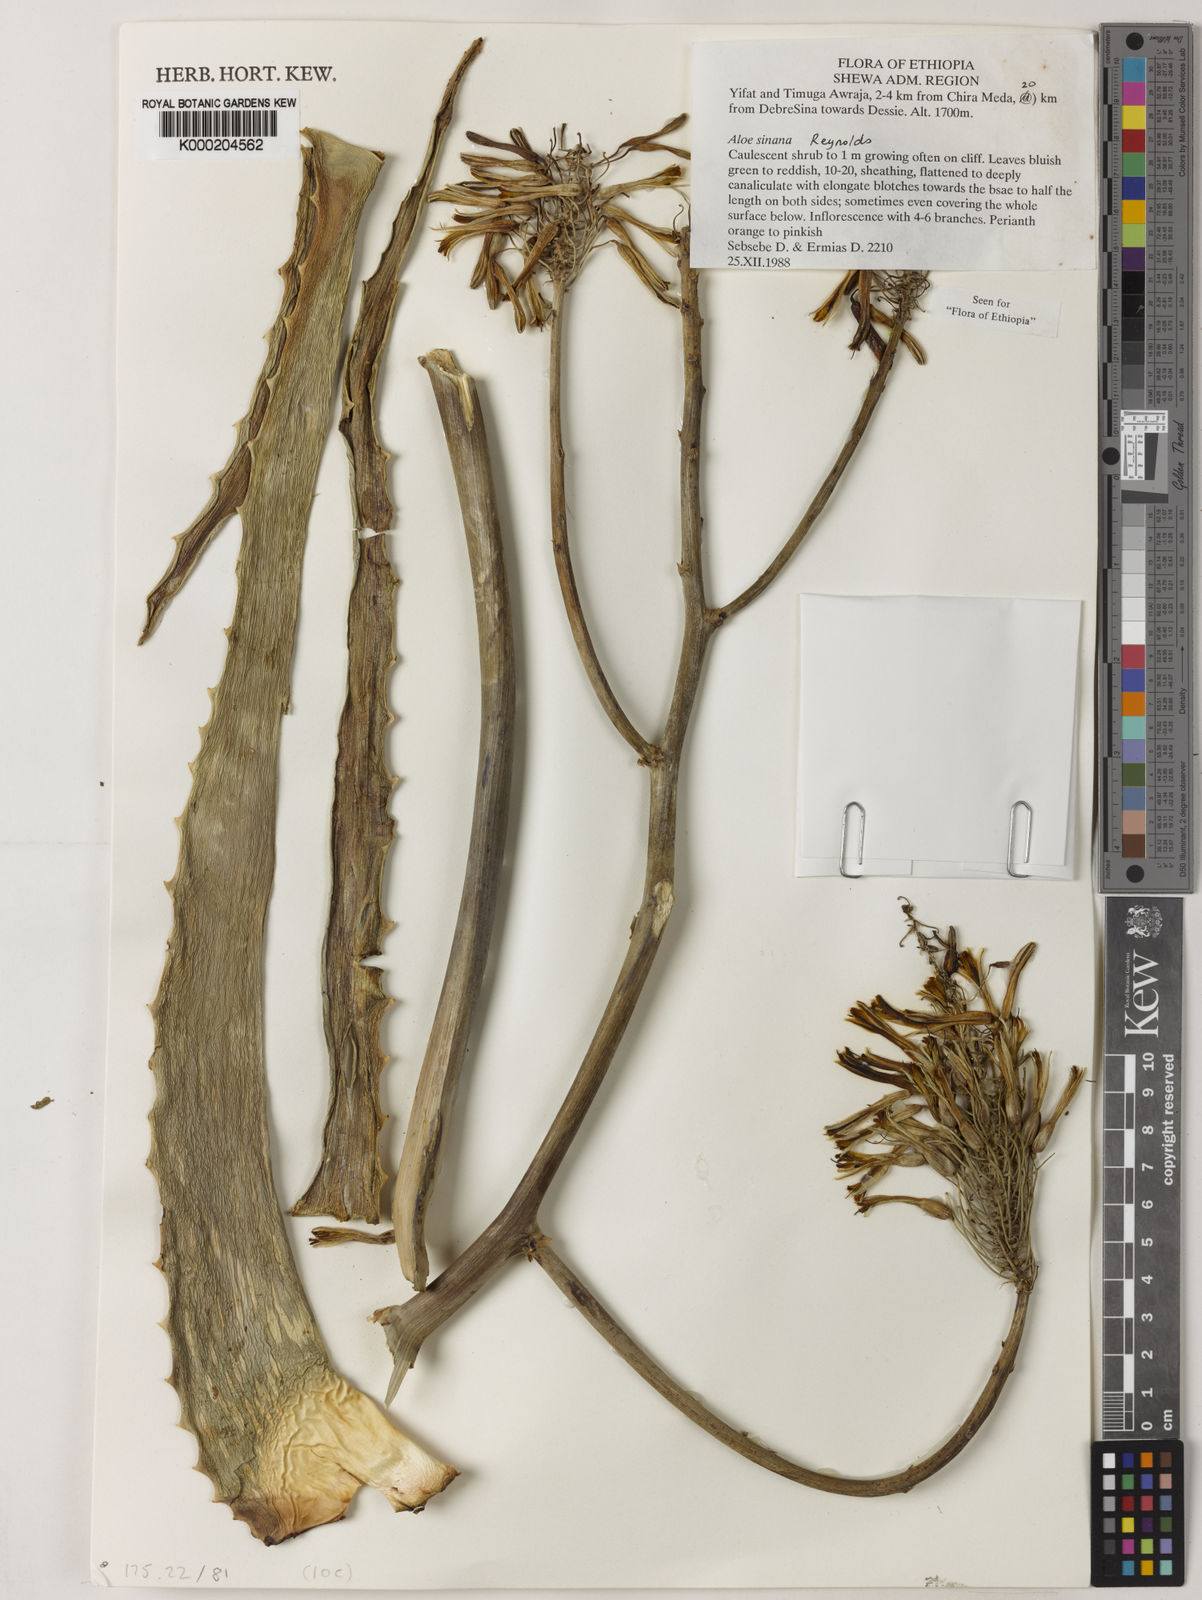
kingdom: Plantae
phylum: Tracheophyta
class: Liliopsida
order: Asparagales
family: Asphodelaceae
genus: Aloe
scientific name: Aloe sinana
